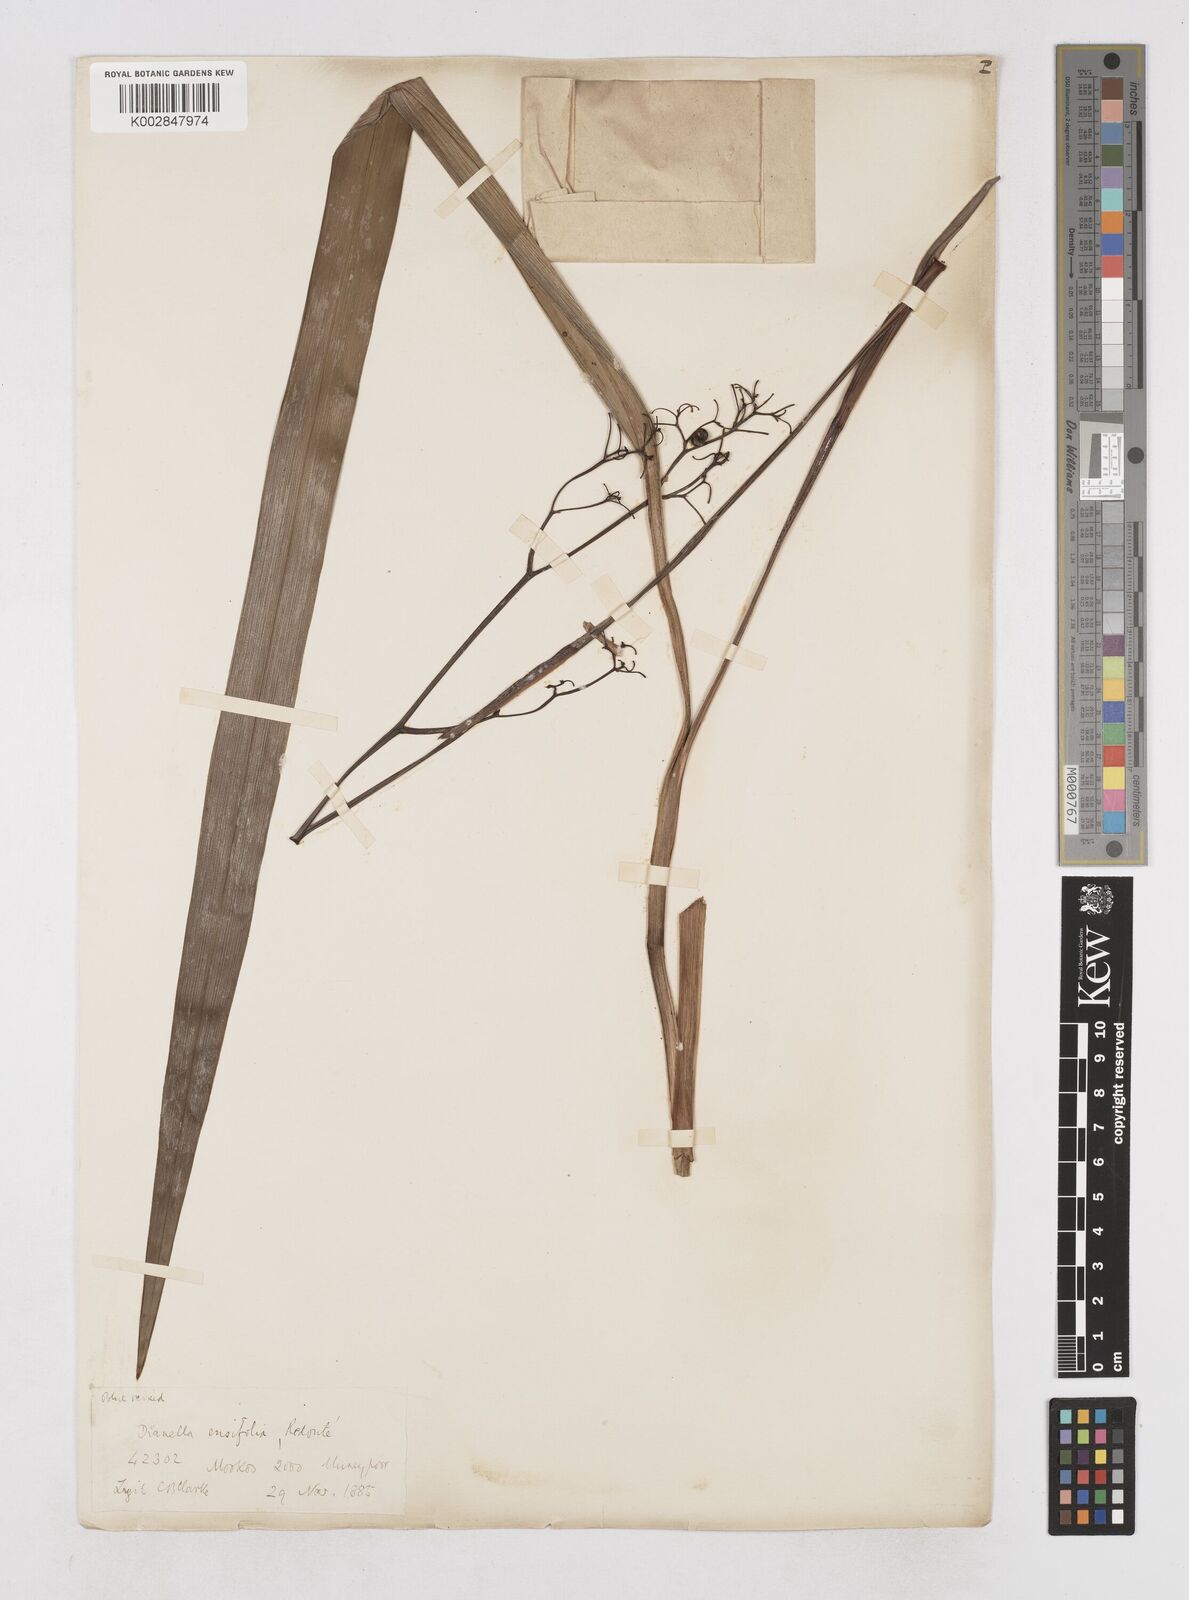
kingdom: Plantae
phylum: Tracheophyta
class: Liliopsida
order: Asparagales
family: Asphodelaceae
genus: Dianella
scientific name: Dianella ensifolia
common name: New zealand lilyplant
